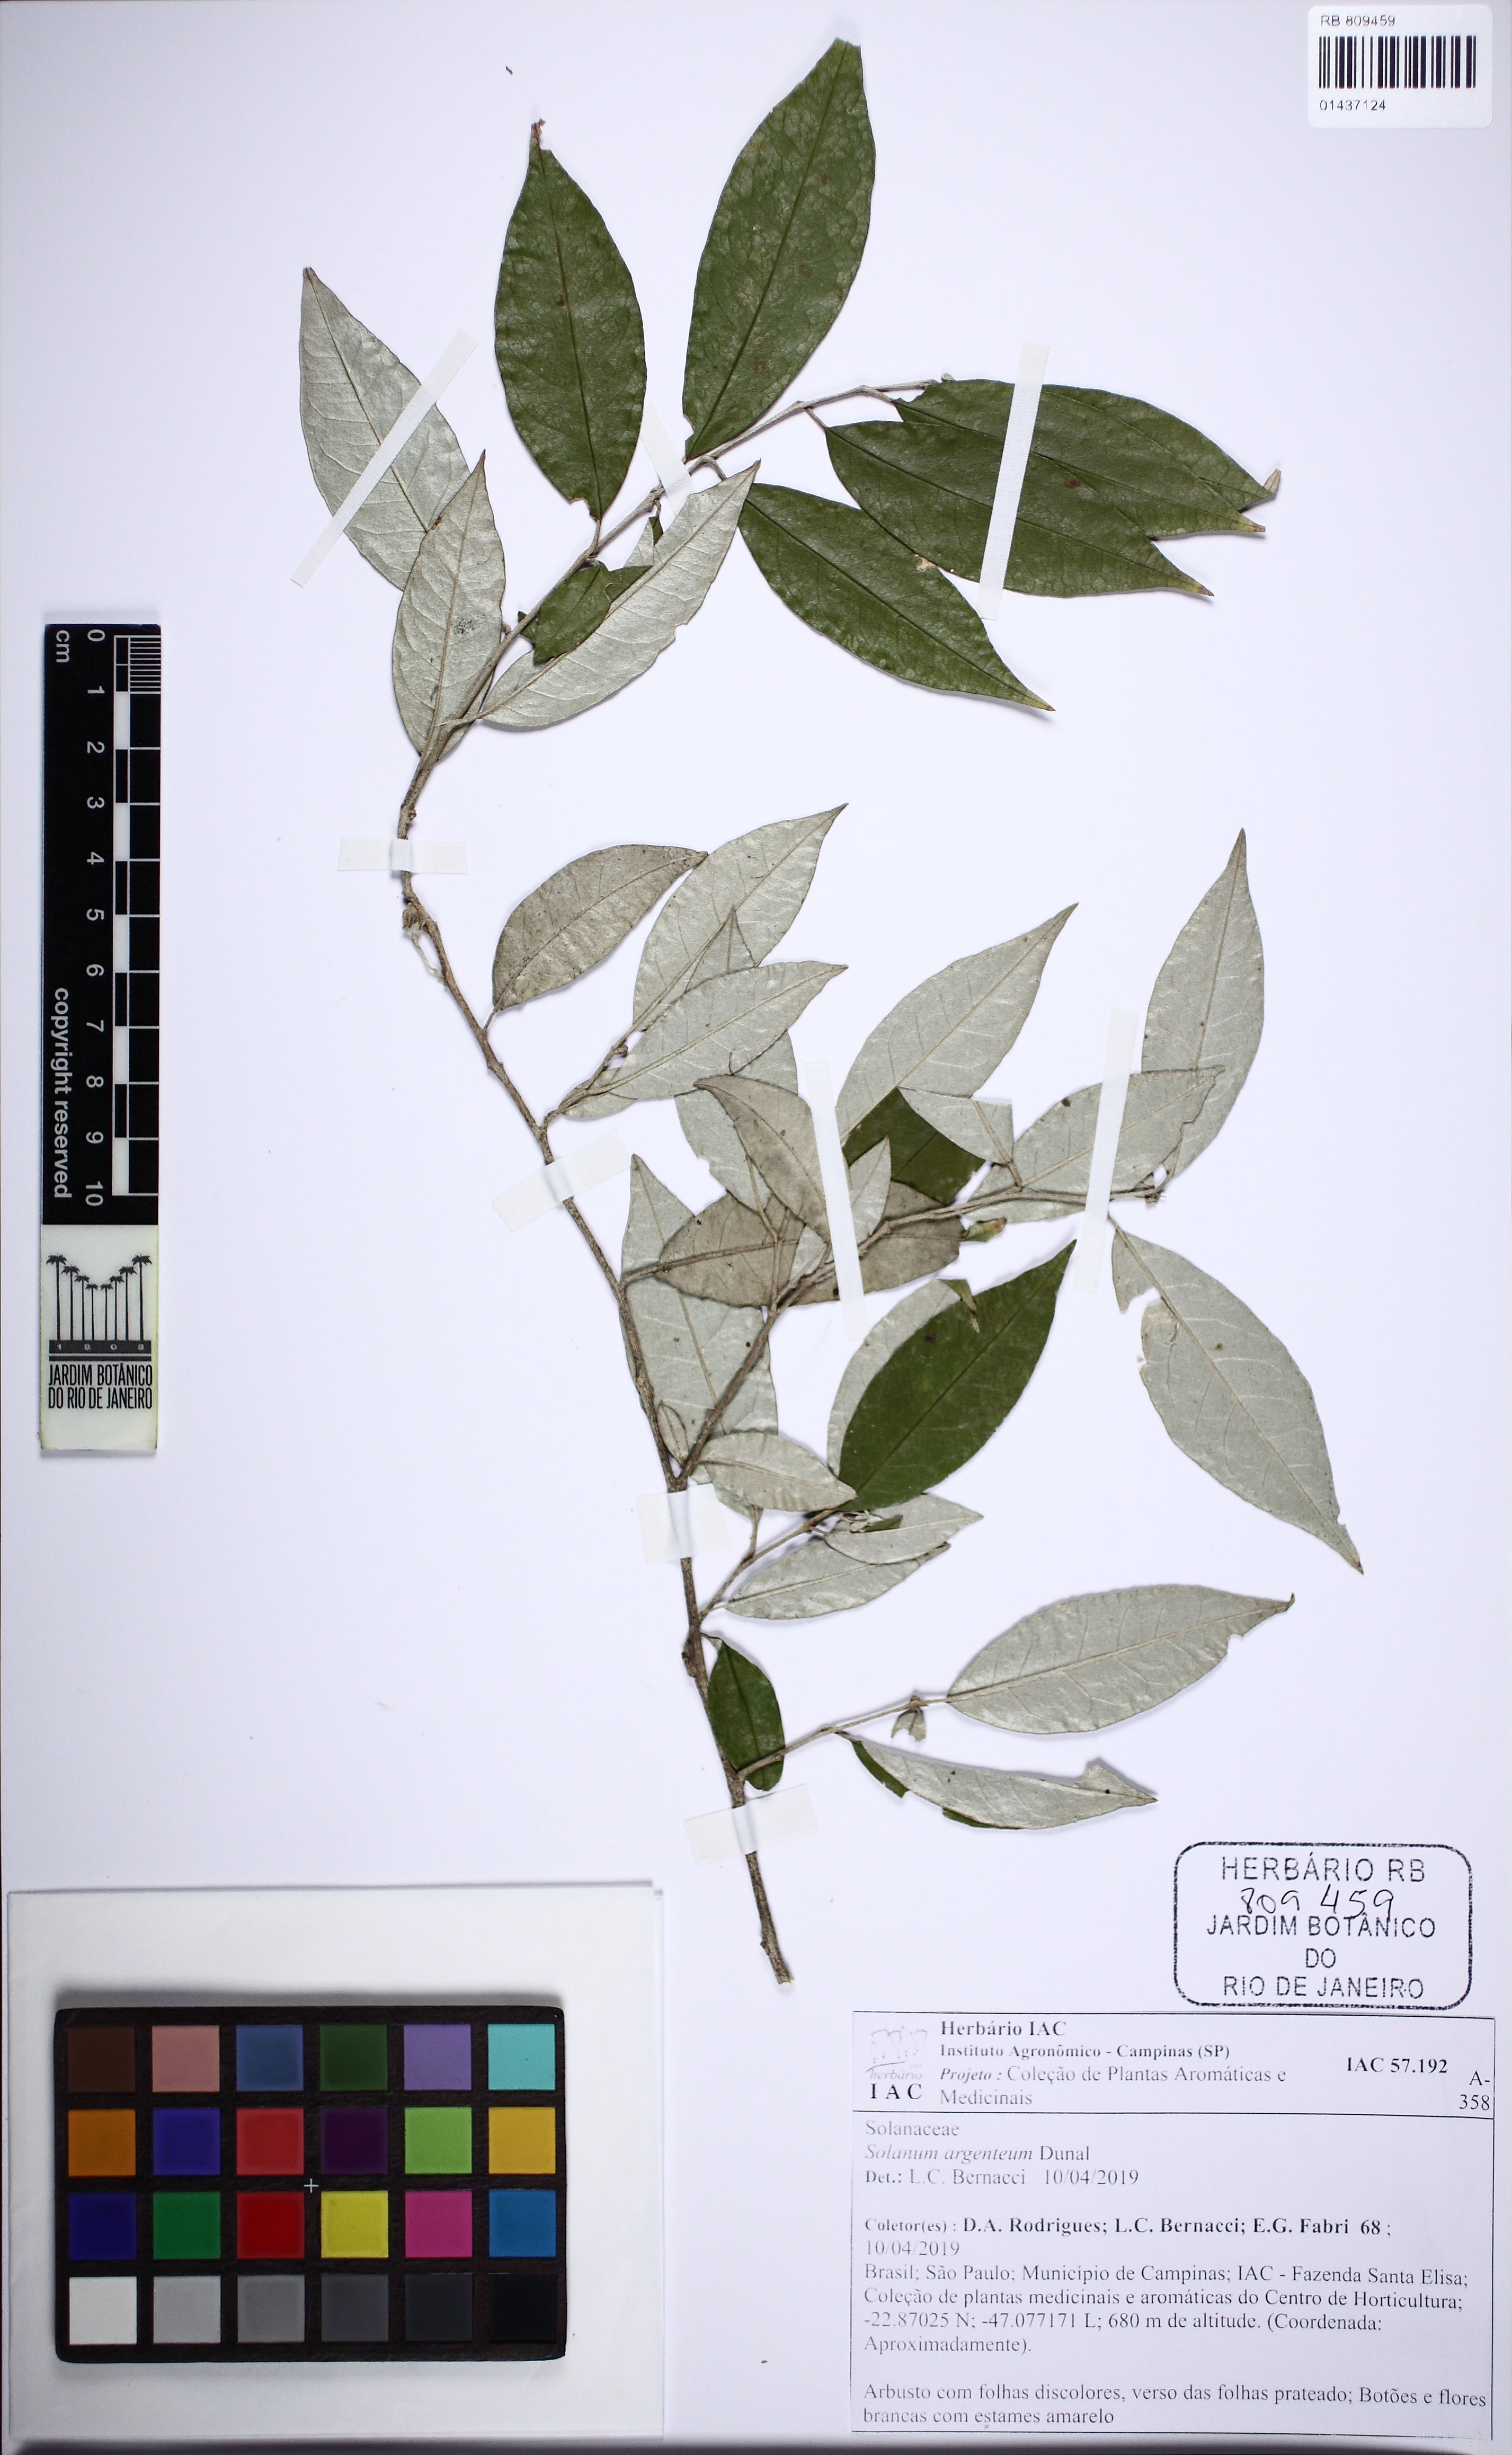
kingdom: Plantae
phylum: Tracheophyta
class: Magnoliopsida
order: Solanales
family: Solanaceae
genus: Solanum
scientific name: Solanum swartzianum
